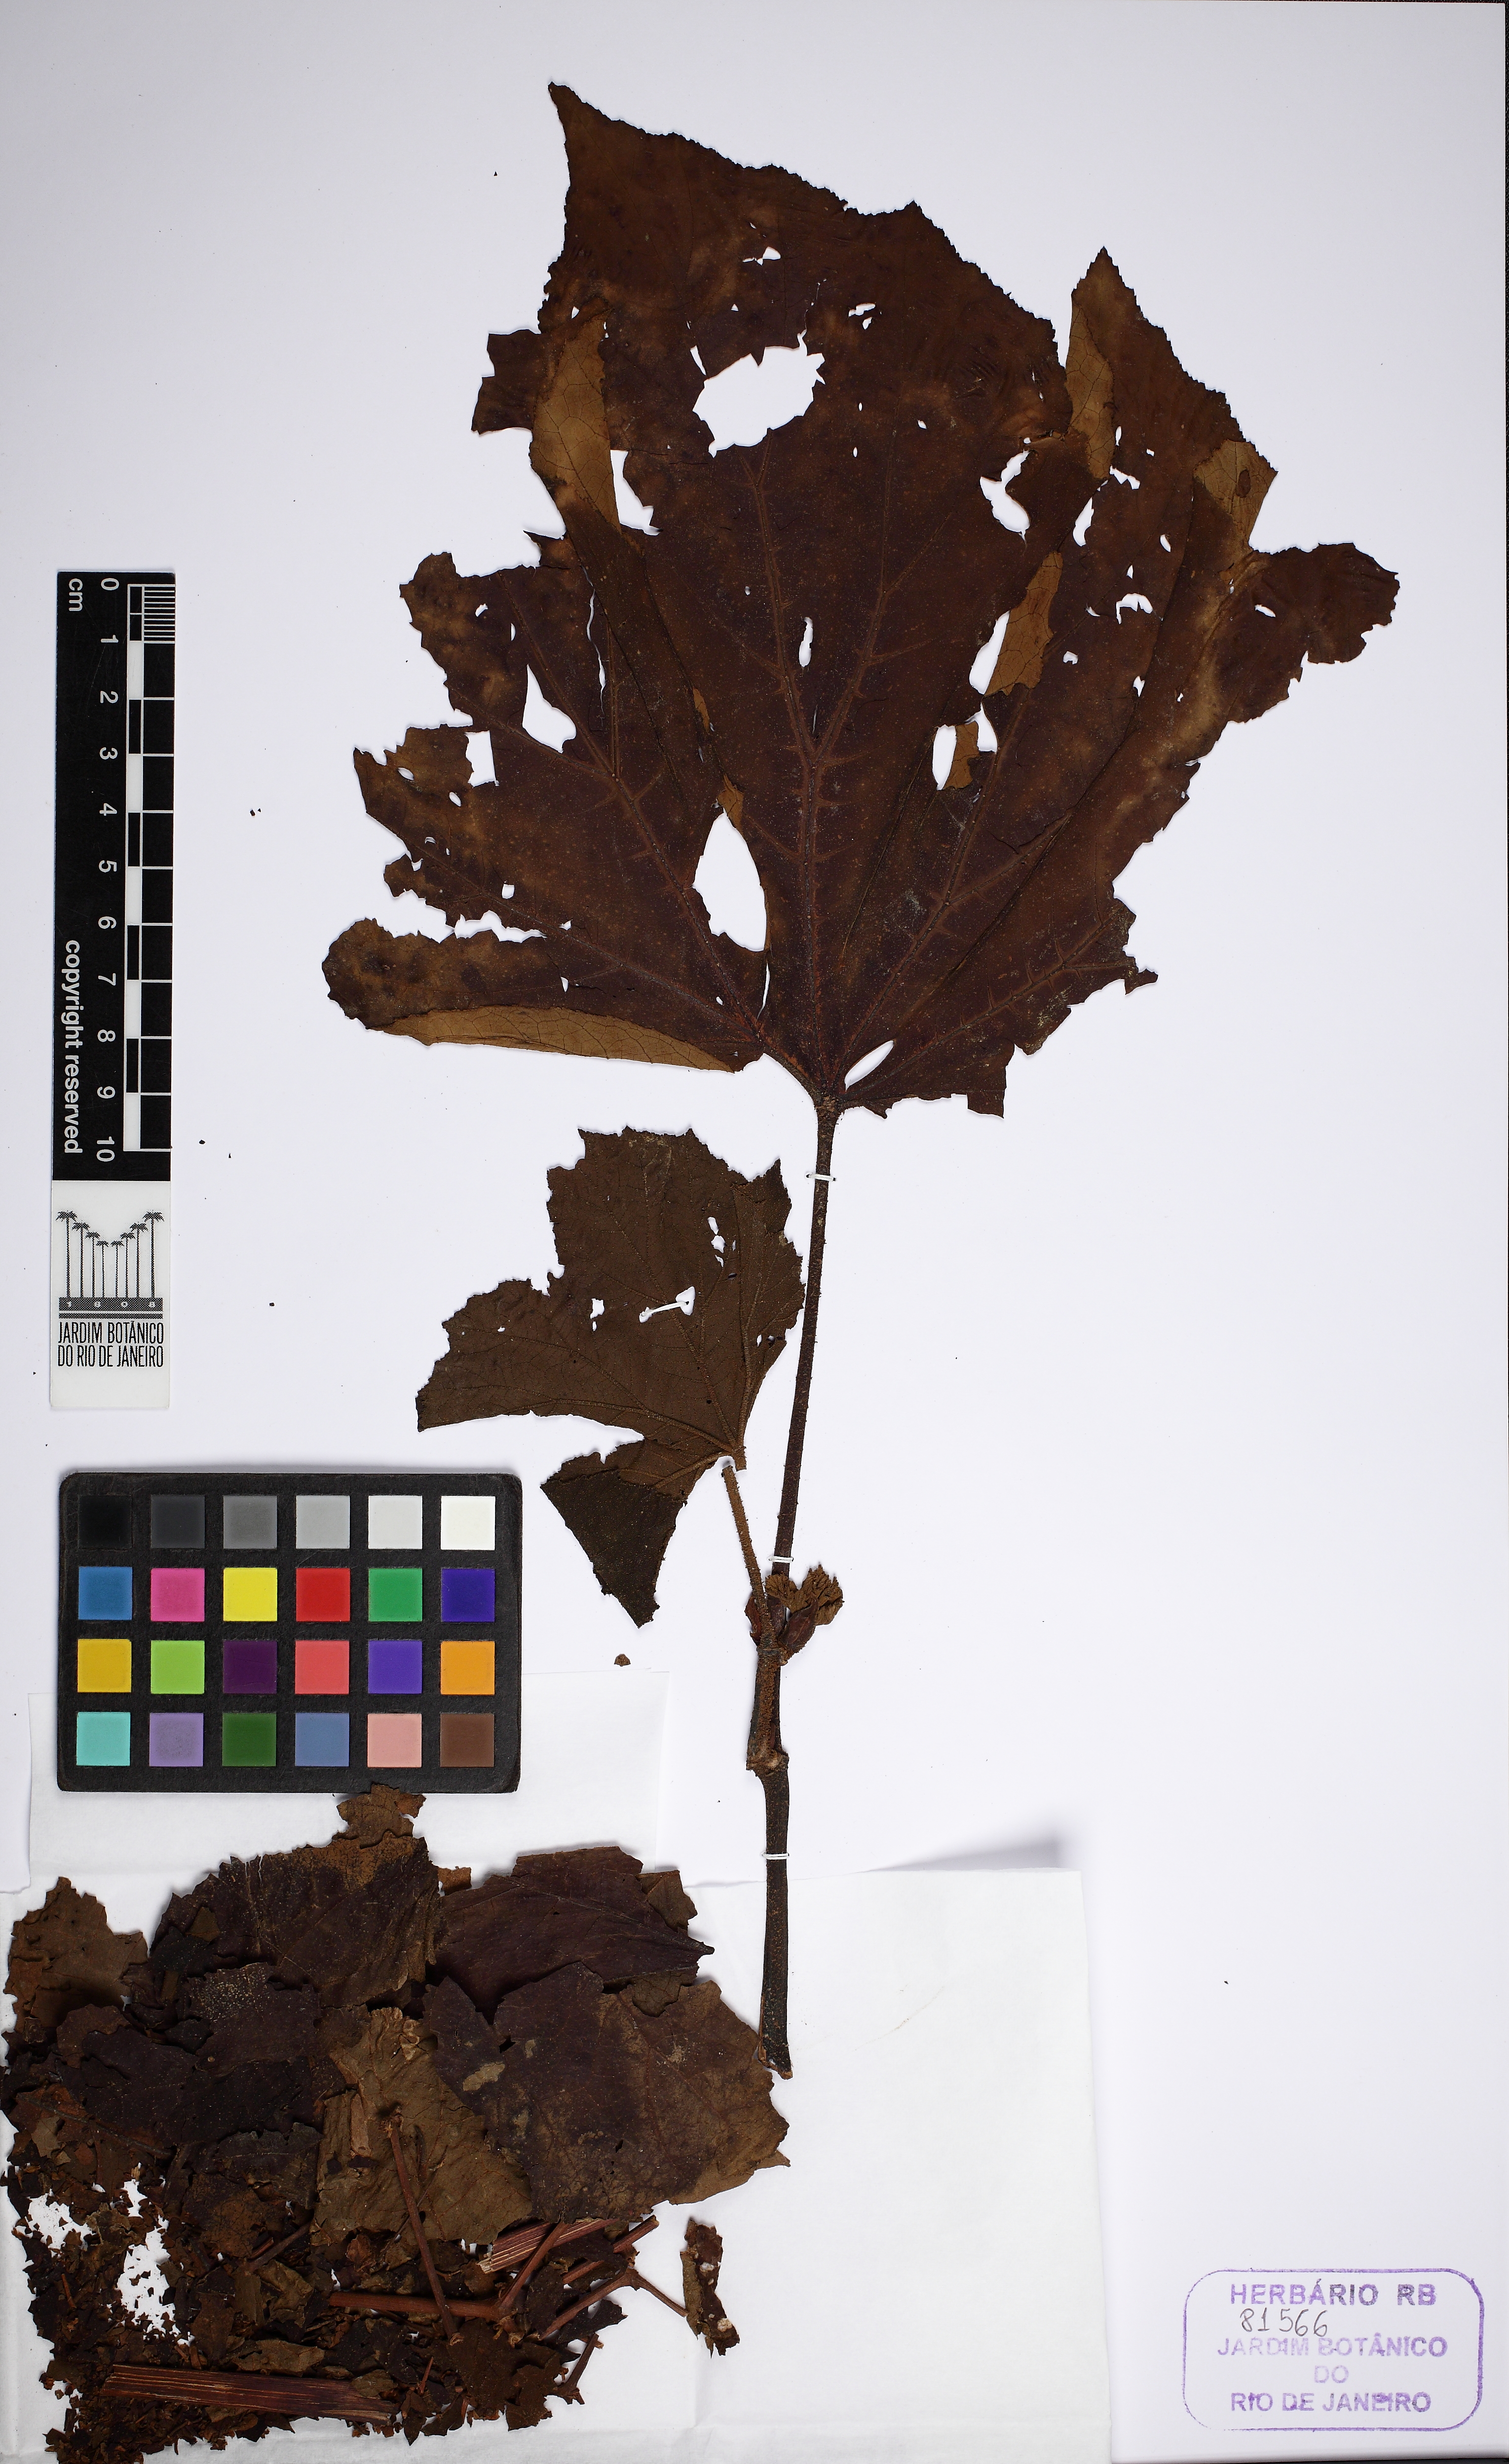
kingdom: Plantae
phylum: Tracheophyta
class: Magnoliopsida
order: Cucurbitales
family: Begoniaceae
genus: Begonia
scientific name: Begonia huegelii
